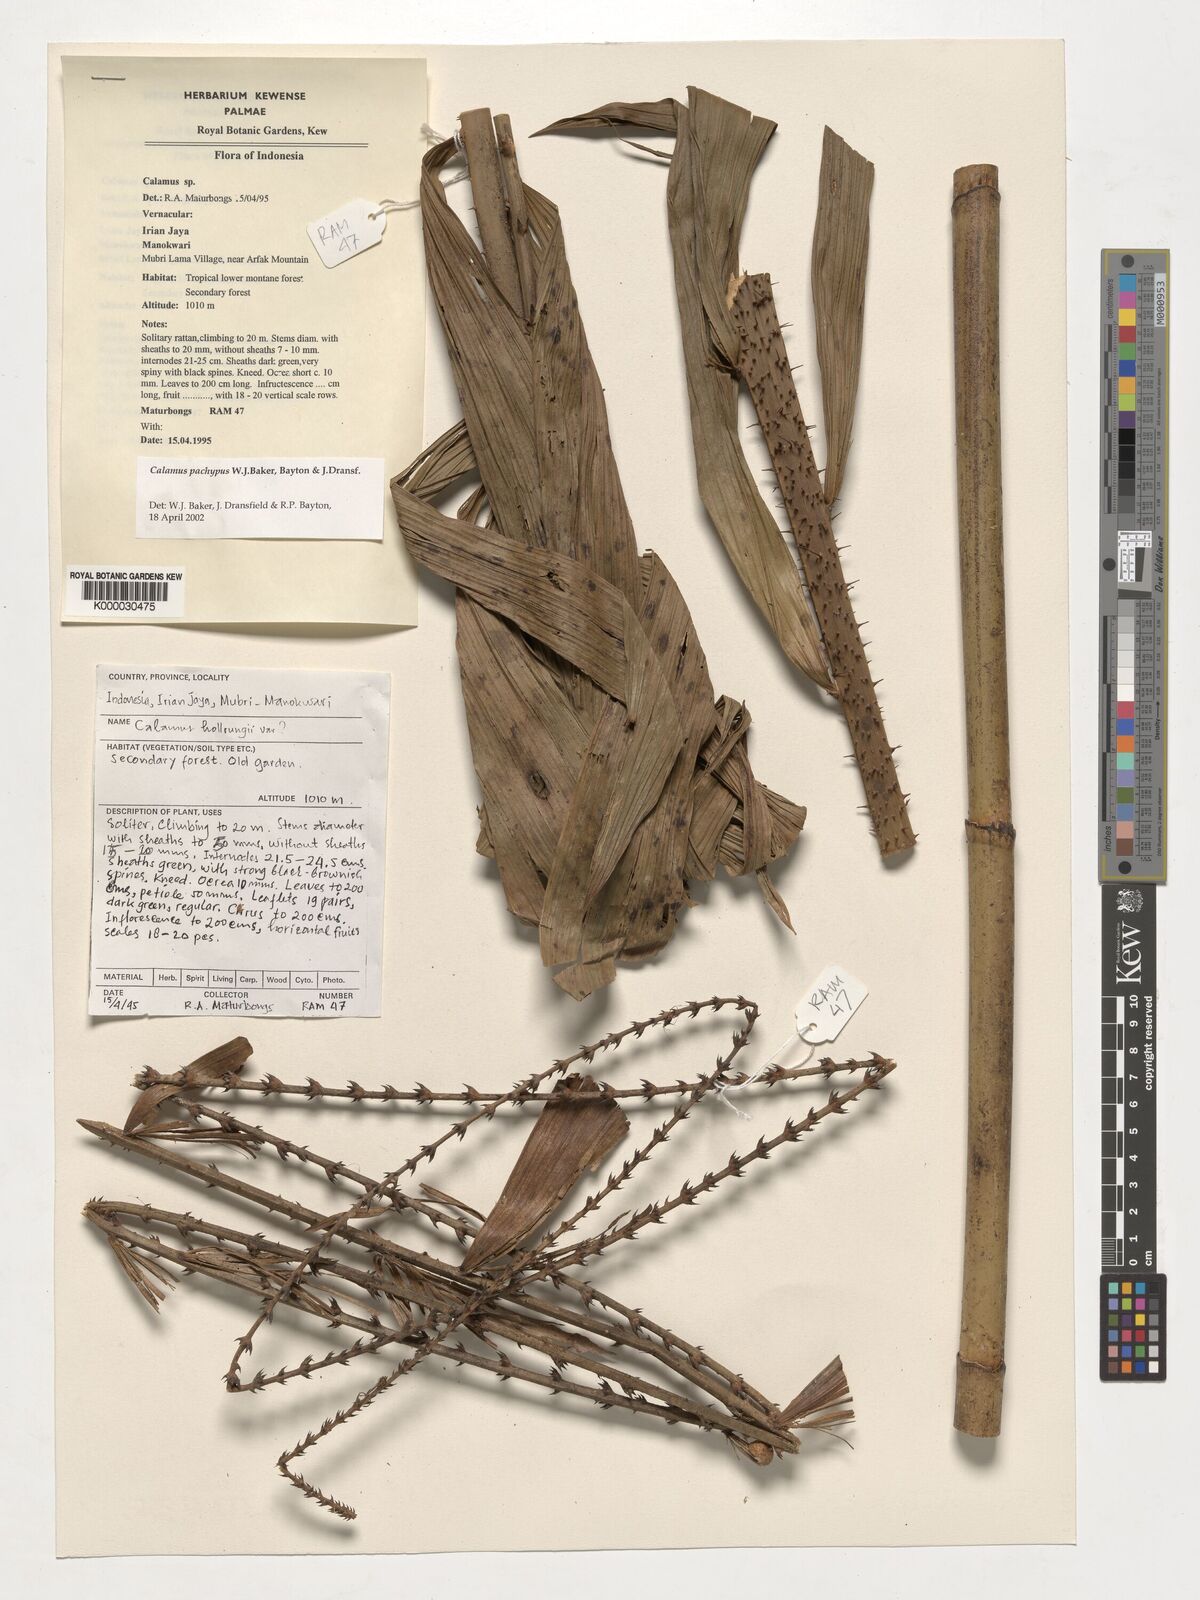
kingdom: Plantae
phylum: Tracheophyta
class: Liliopsida
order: Arecales
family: Arecaceae
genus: Calamus
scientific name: Calamus
